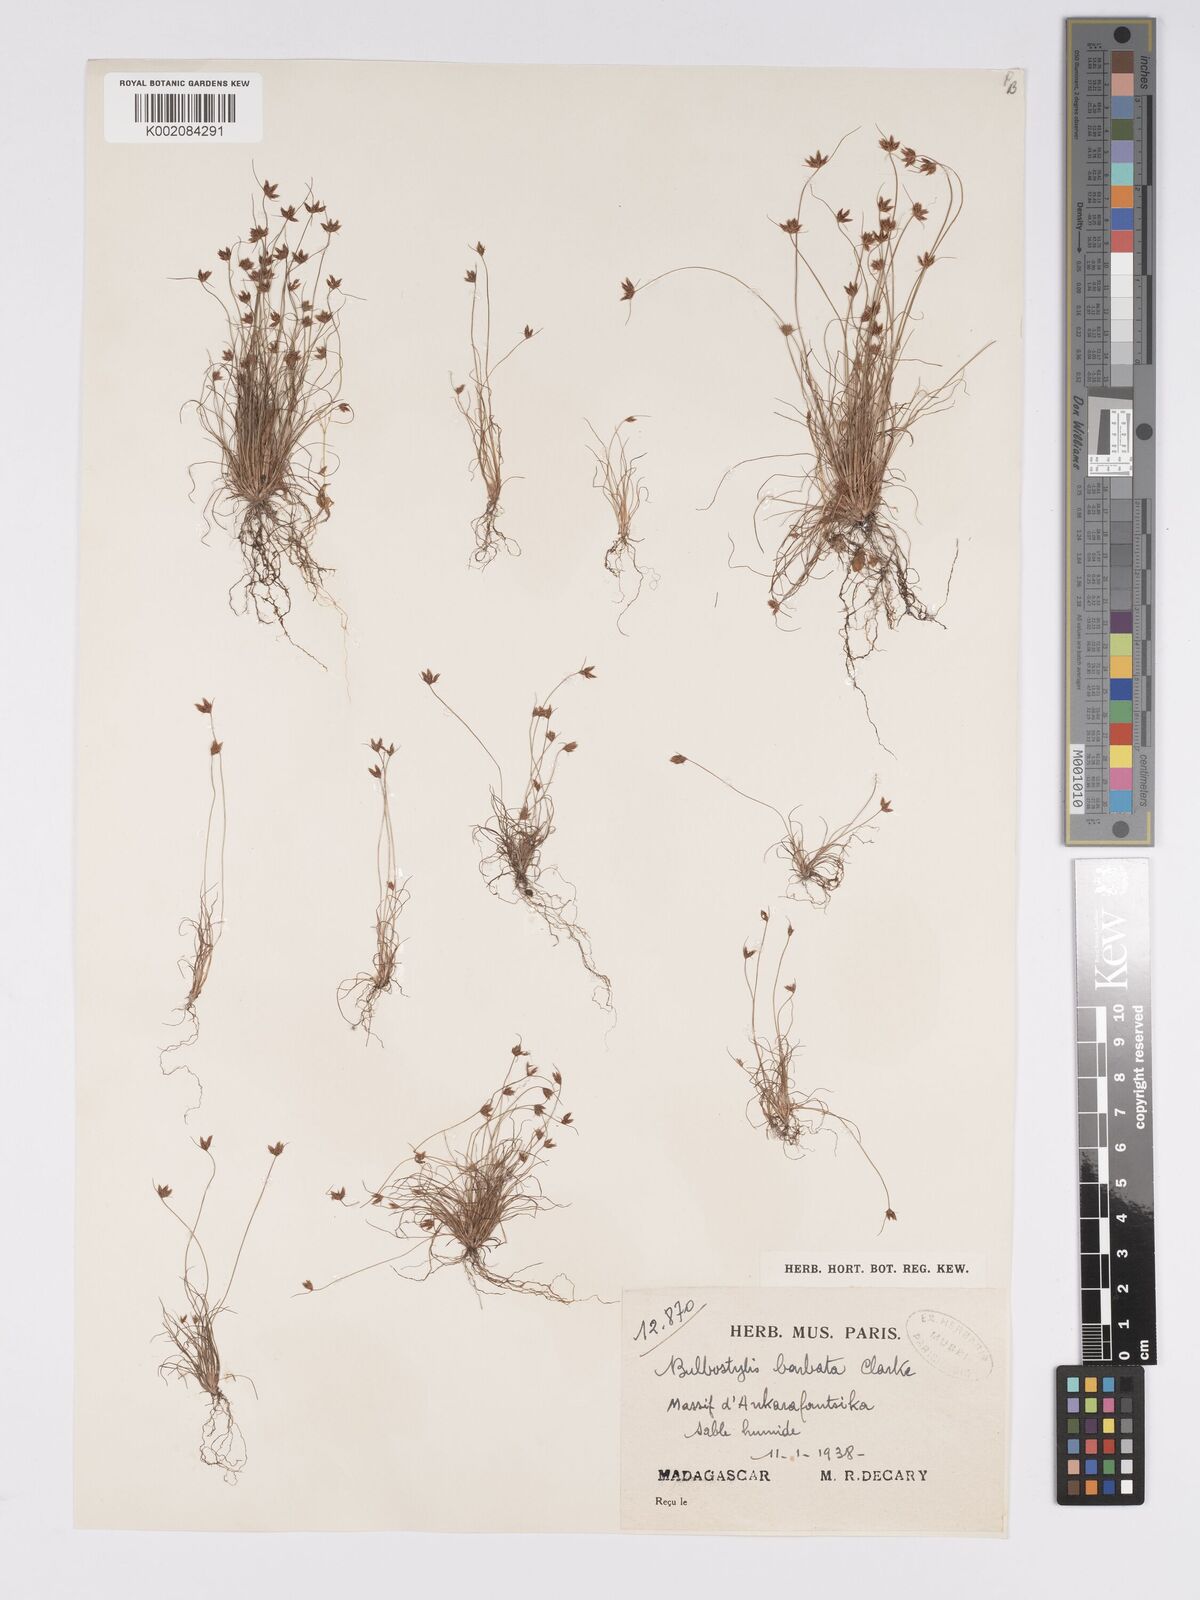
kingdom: Plantae
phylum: Tracheophyta
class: Liliopsida
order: Poales
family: Cyperaceae
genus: Bulbostylis
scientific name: Bulbostylis barbata
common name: Watergrass
